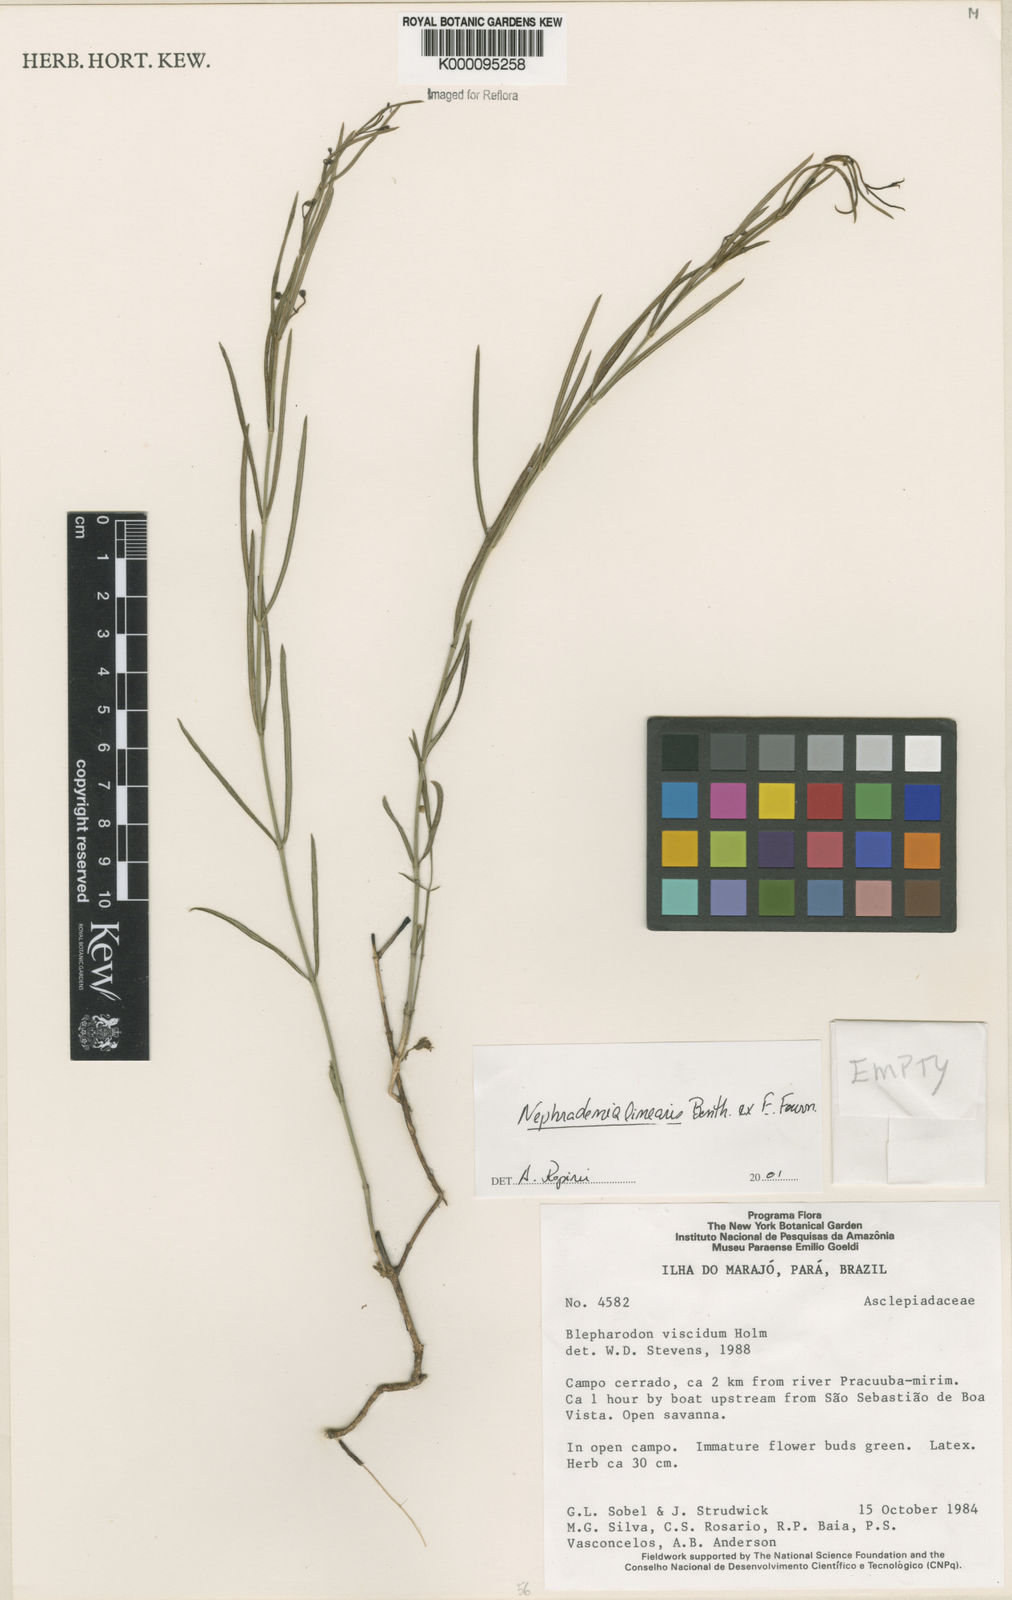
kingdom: Plantae
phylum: Tracheophyta
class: Magnoliopsida
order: Gentianales
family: Apocynaceae
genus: Blepharodon
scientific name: Blepharodon lineare
